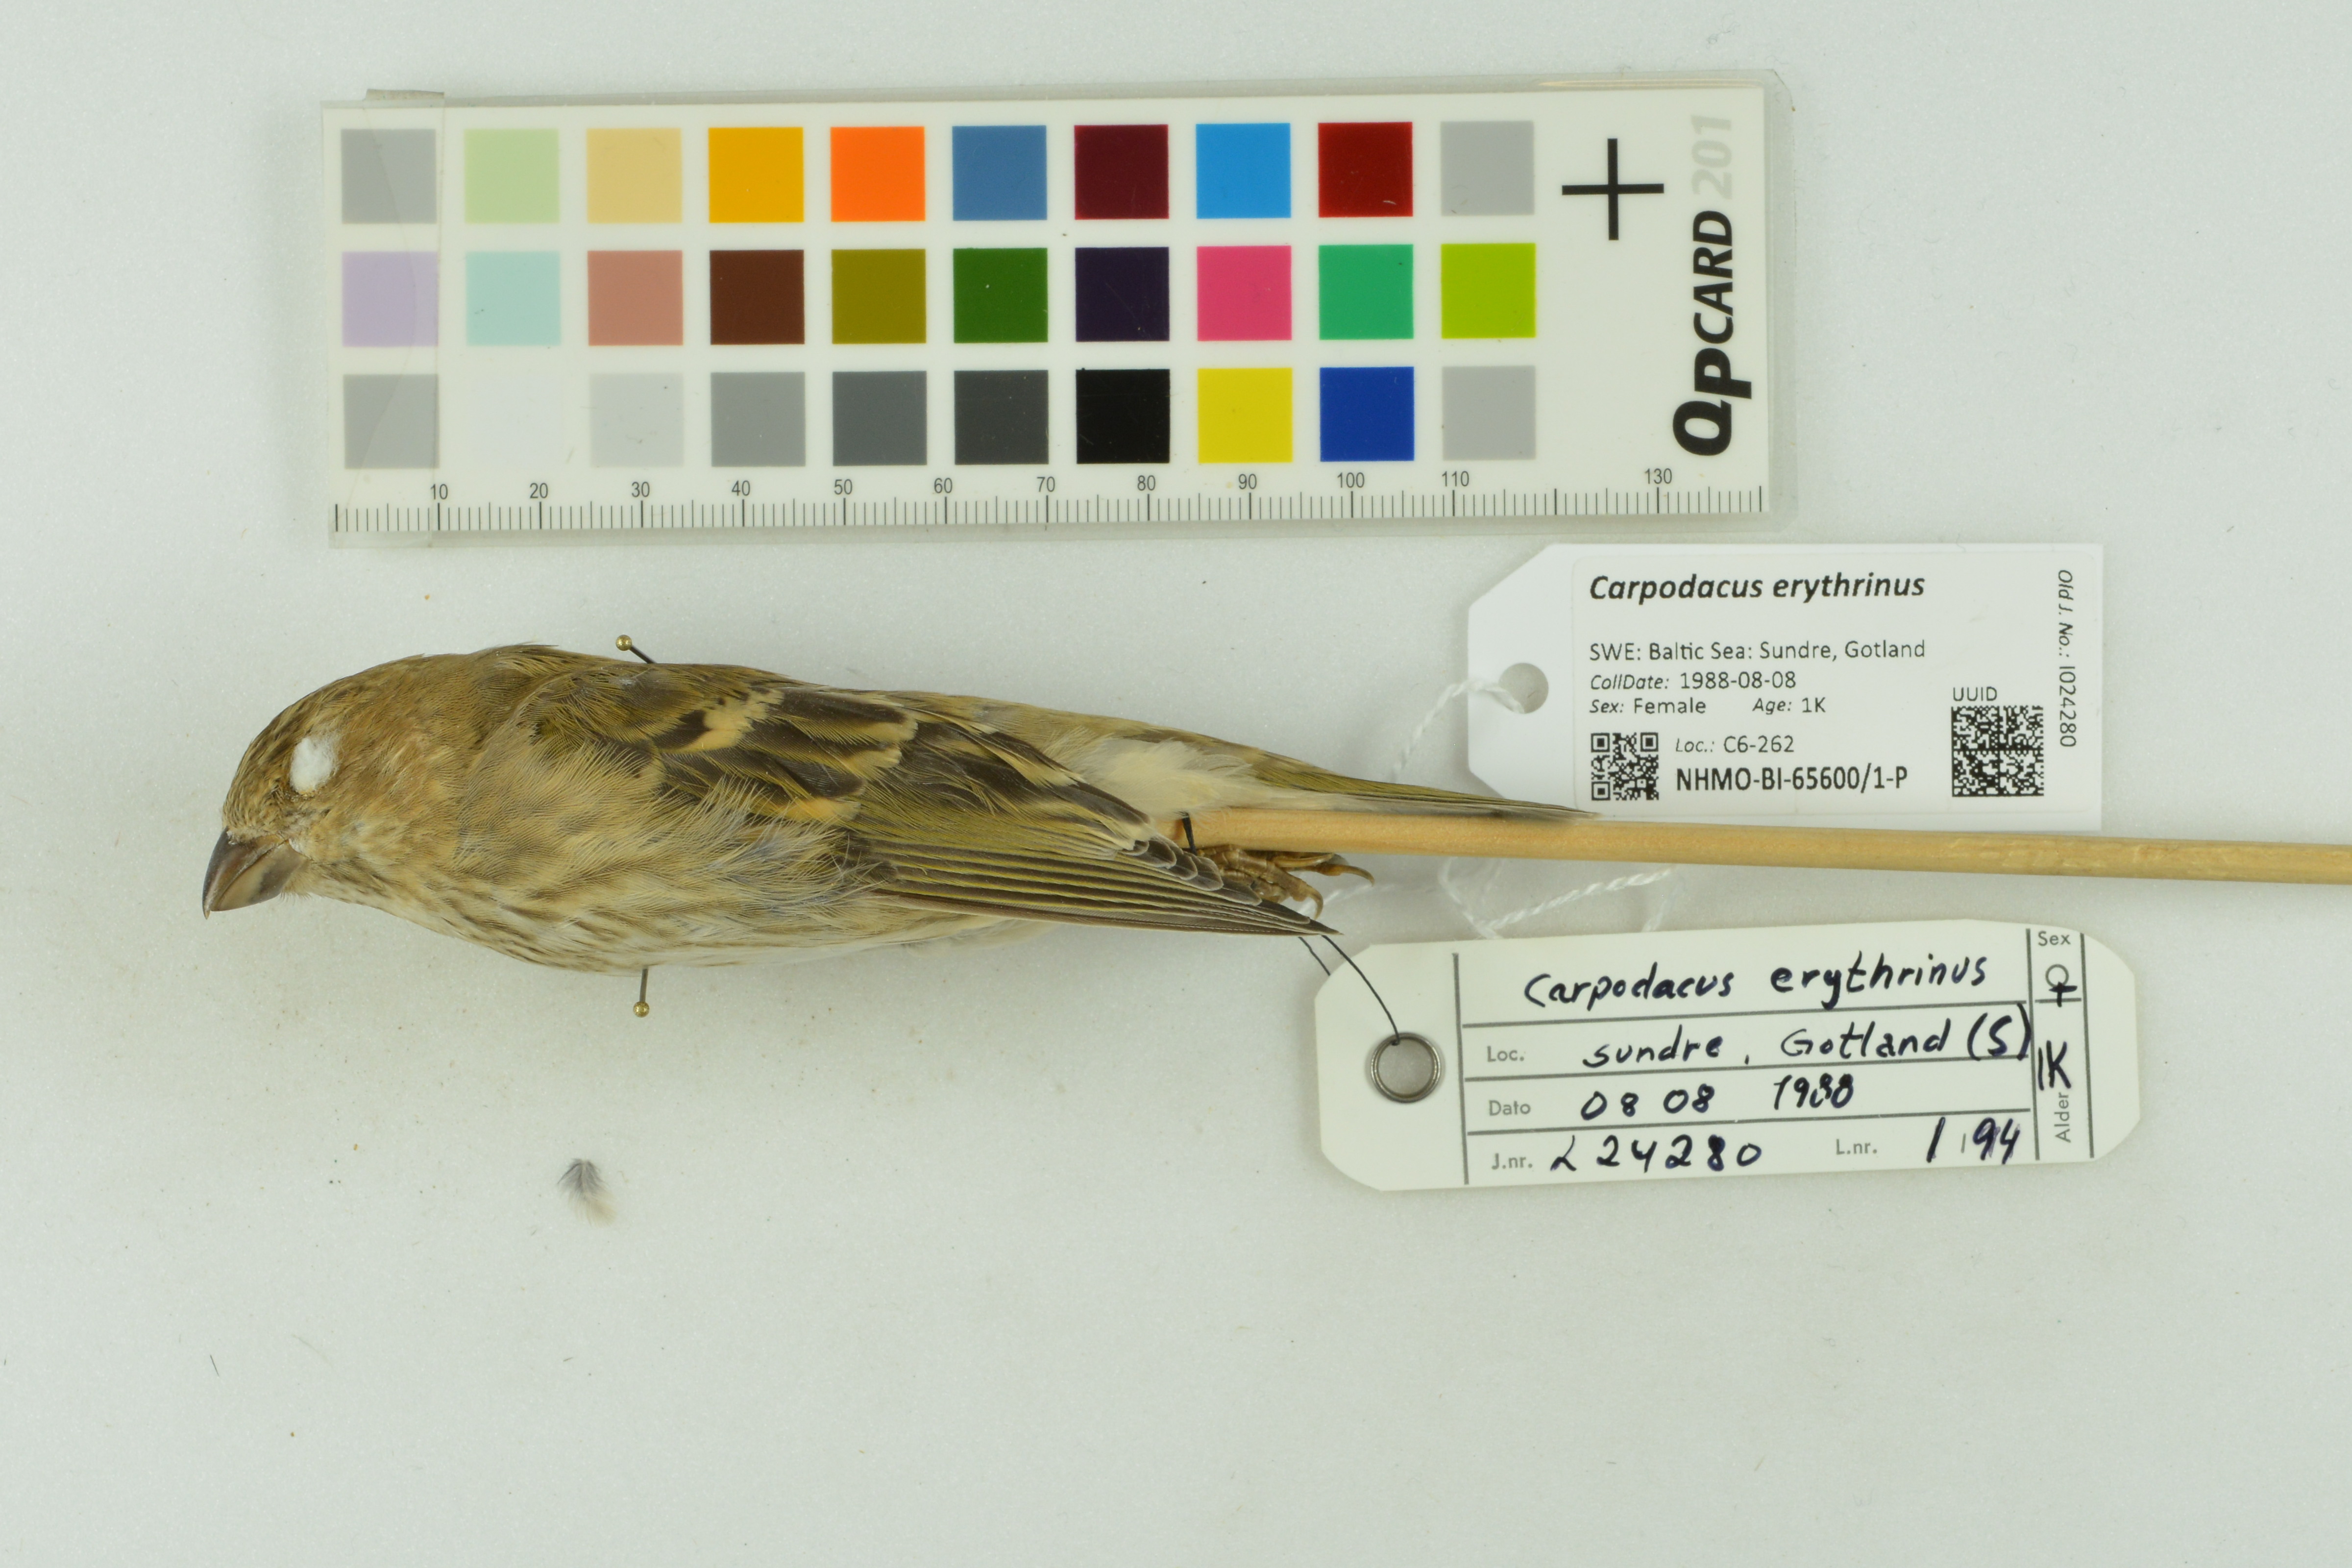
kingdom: Animalia
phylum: Chordata
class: Aves
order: Passeriformes
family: Fringillidae
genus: Carpodacus
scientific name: Carpodacus erythrinus
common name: Common rosefinch
